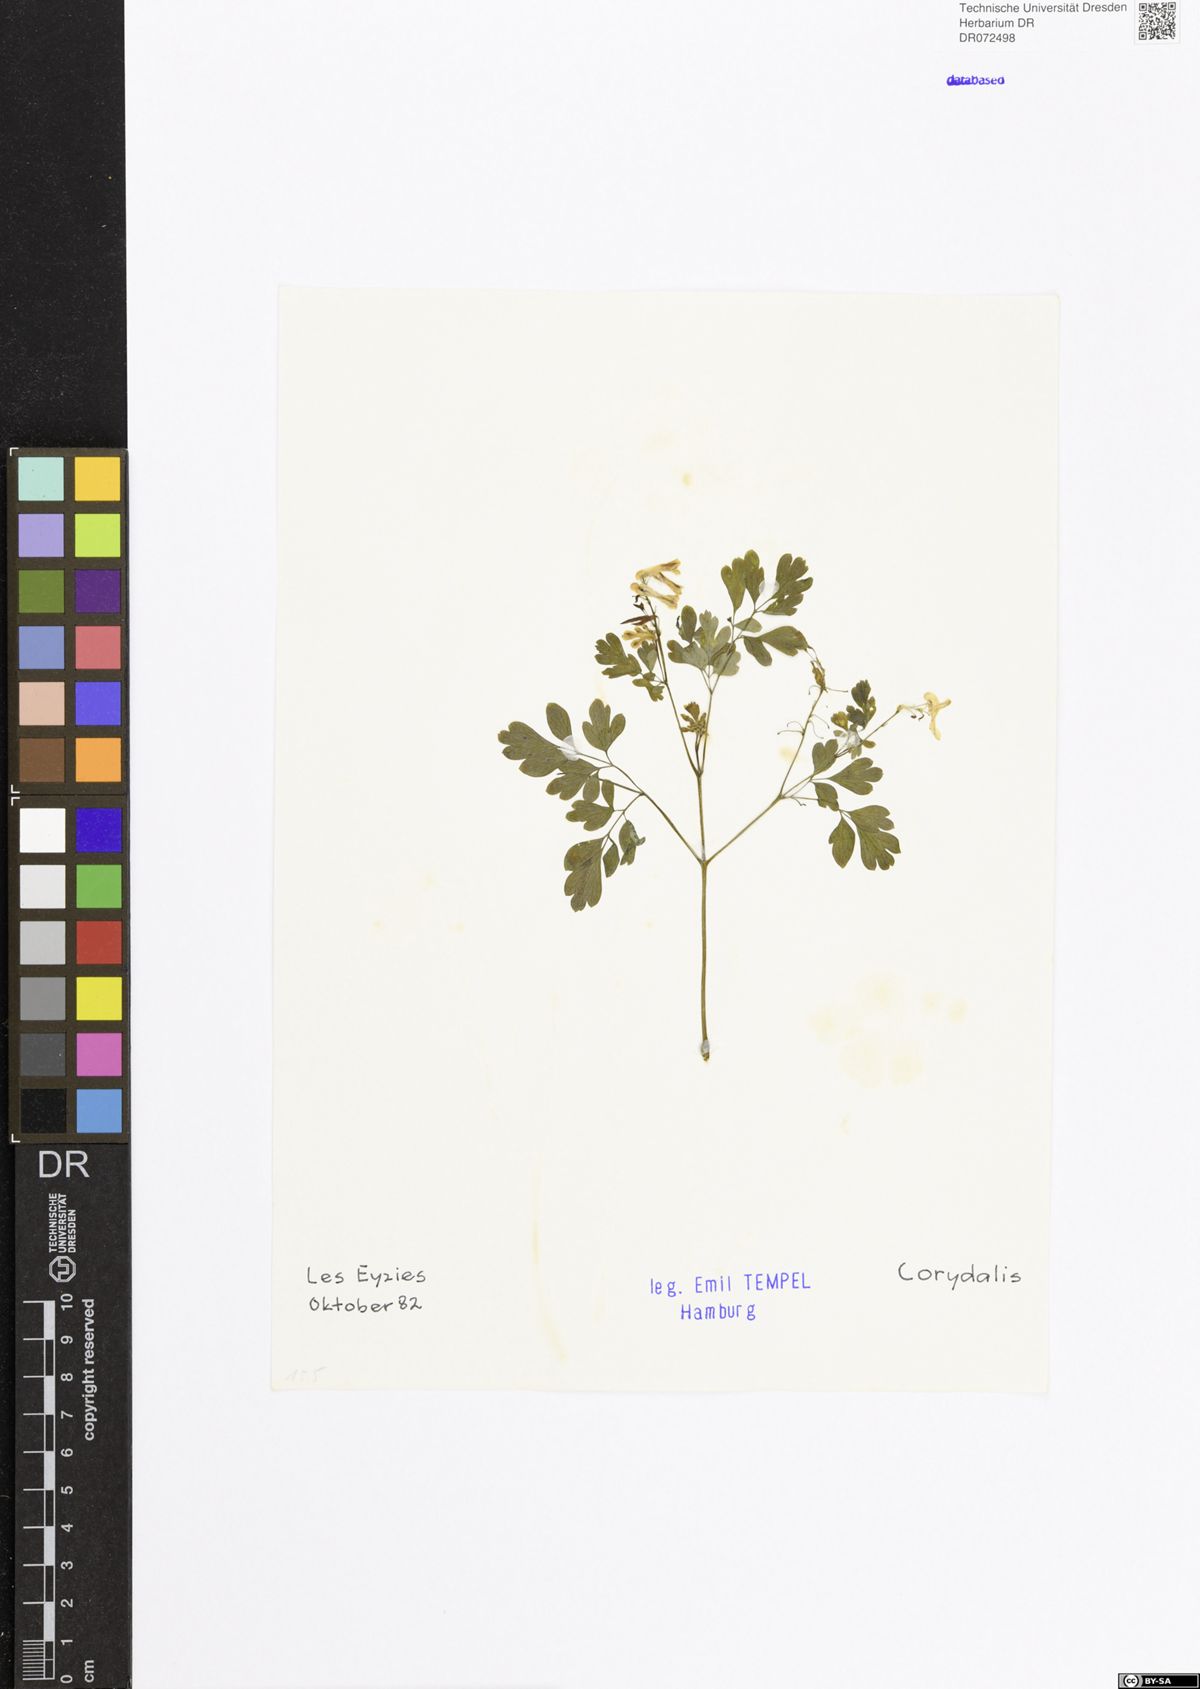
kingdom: Plantae
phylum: Tracheophyta
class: Magnoliopsida
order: Ranunculales
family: Papaveraceae
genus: Corydalis
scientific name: Corydalis
